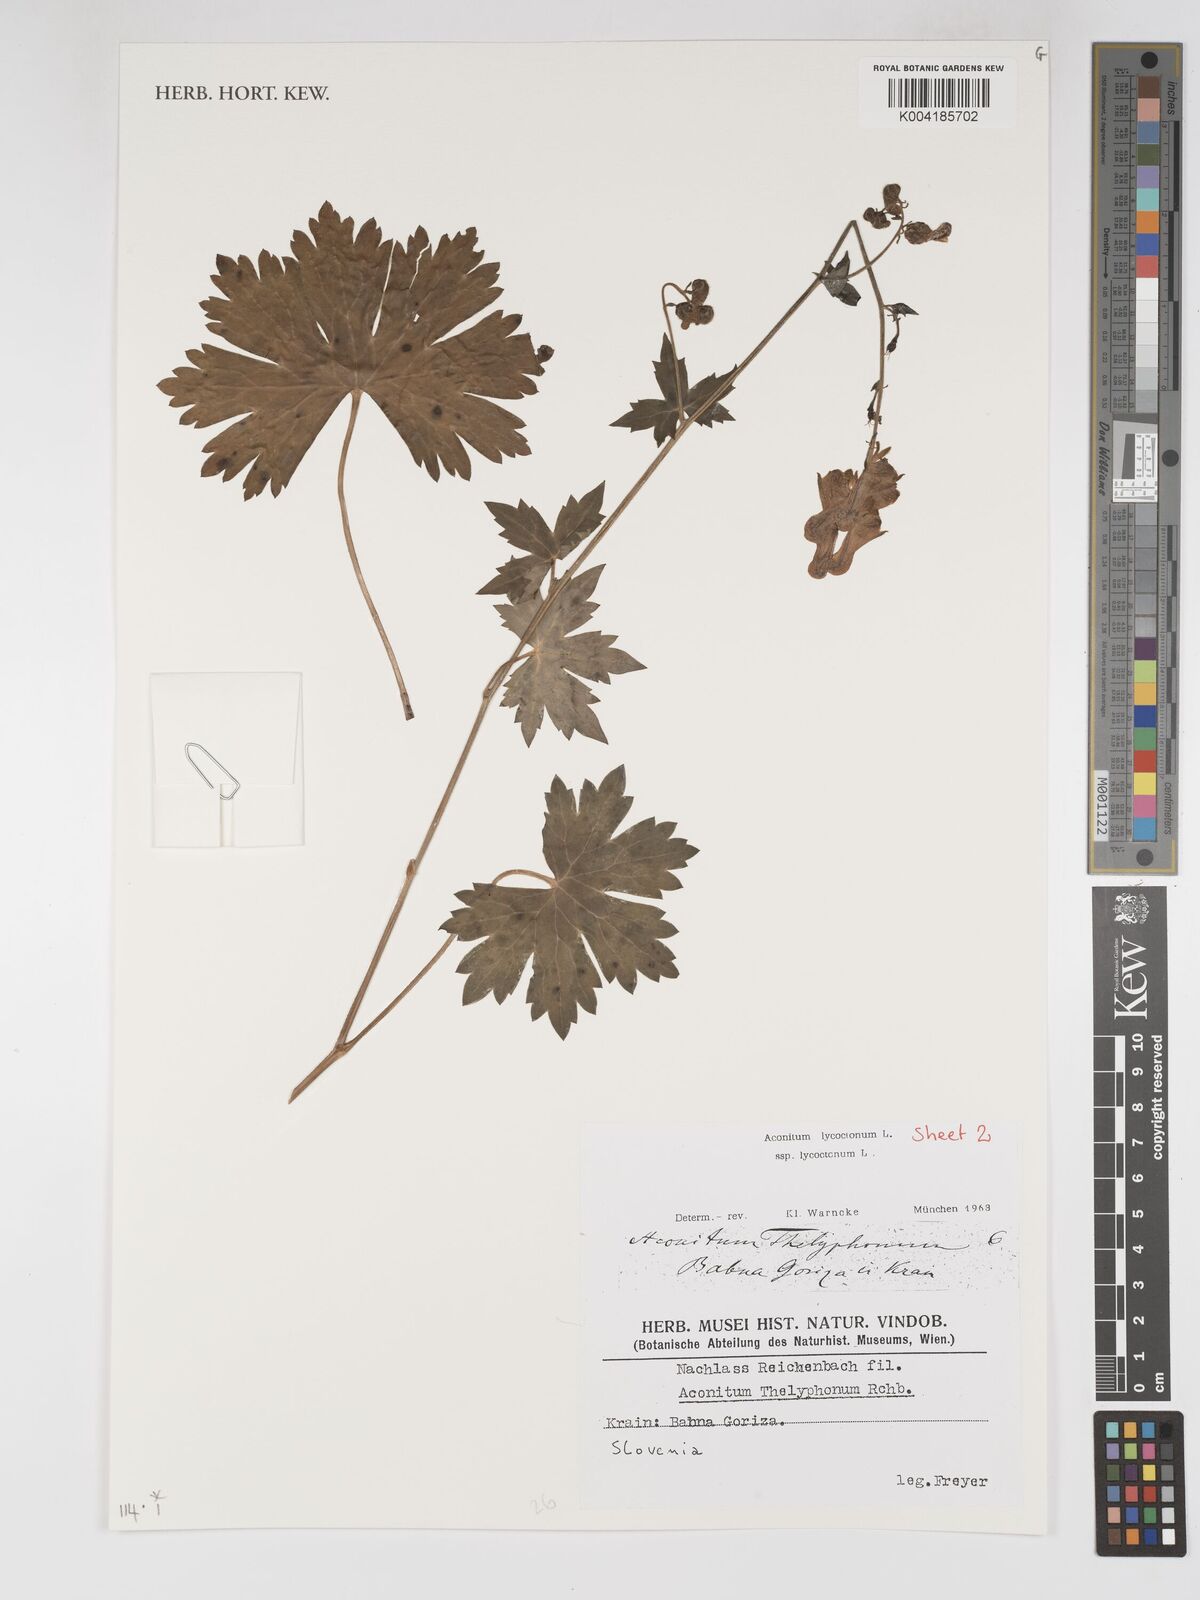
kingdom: Plantae
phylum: Tracheophyta
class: Magnoliopsida
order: Ranunculales
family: Ranunculaceae
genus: Aconitum
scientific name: Aconitum lycoctonum
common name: Wolf's-bane
